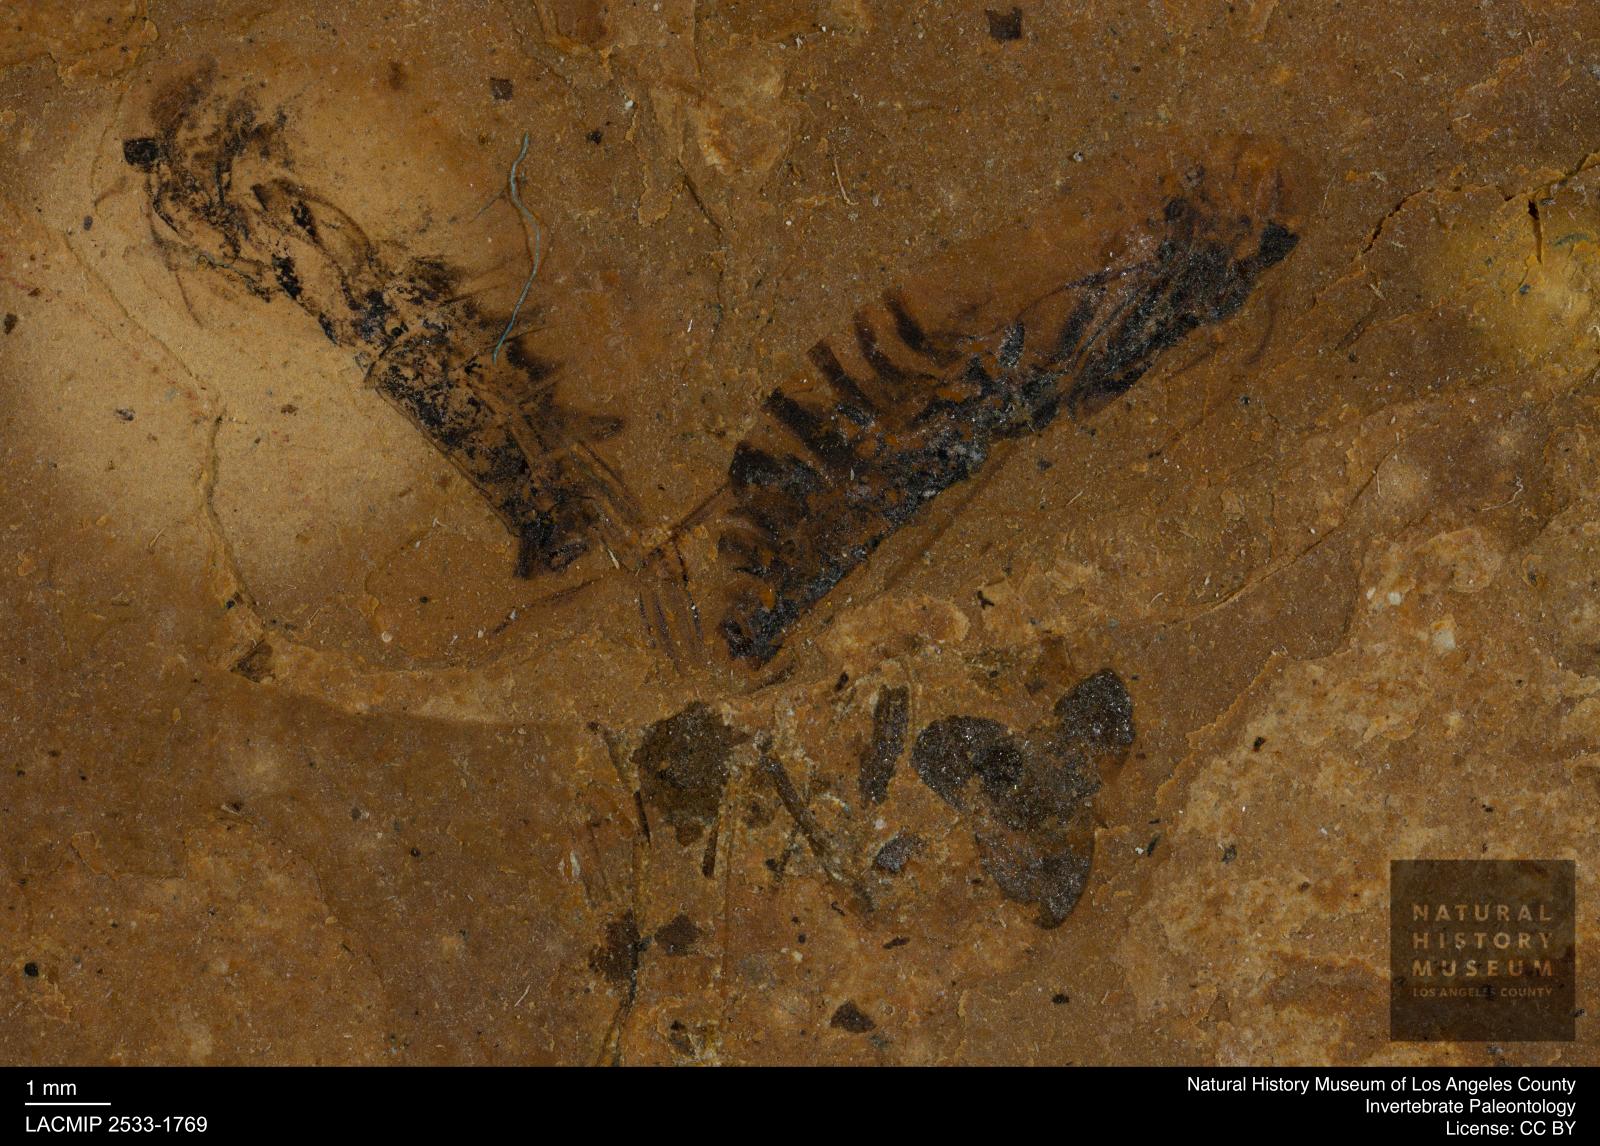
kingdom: Animalia
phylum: Arthropoda
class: Insecta
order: Hemiptera
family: Notonectidae
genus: Notonecta
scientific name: Notonecta
